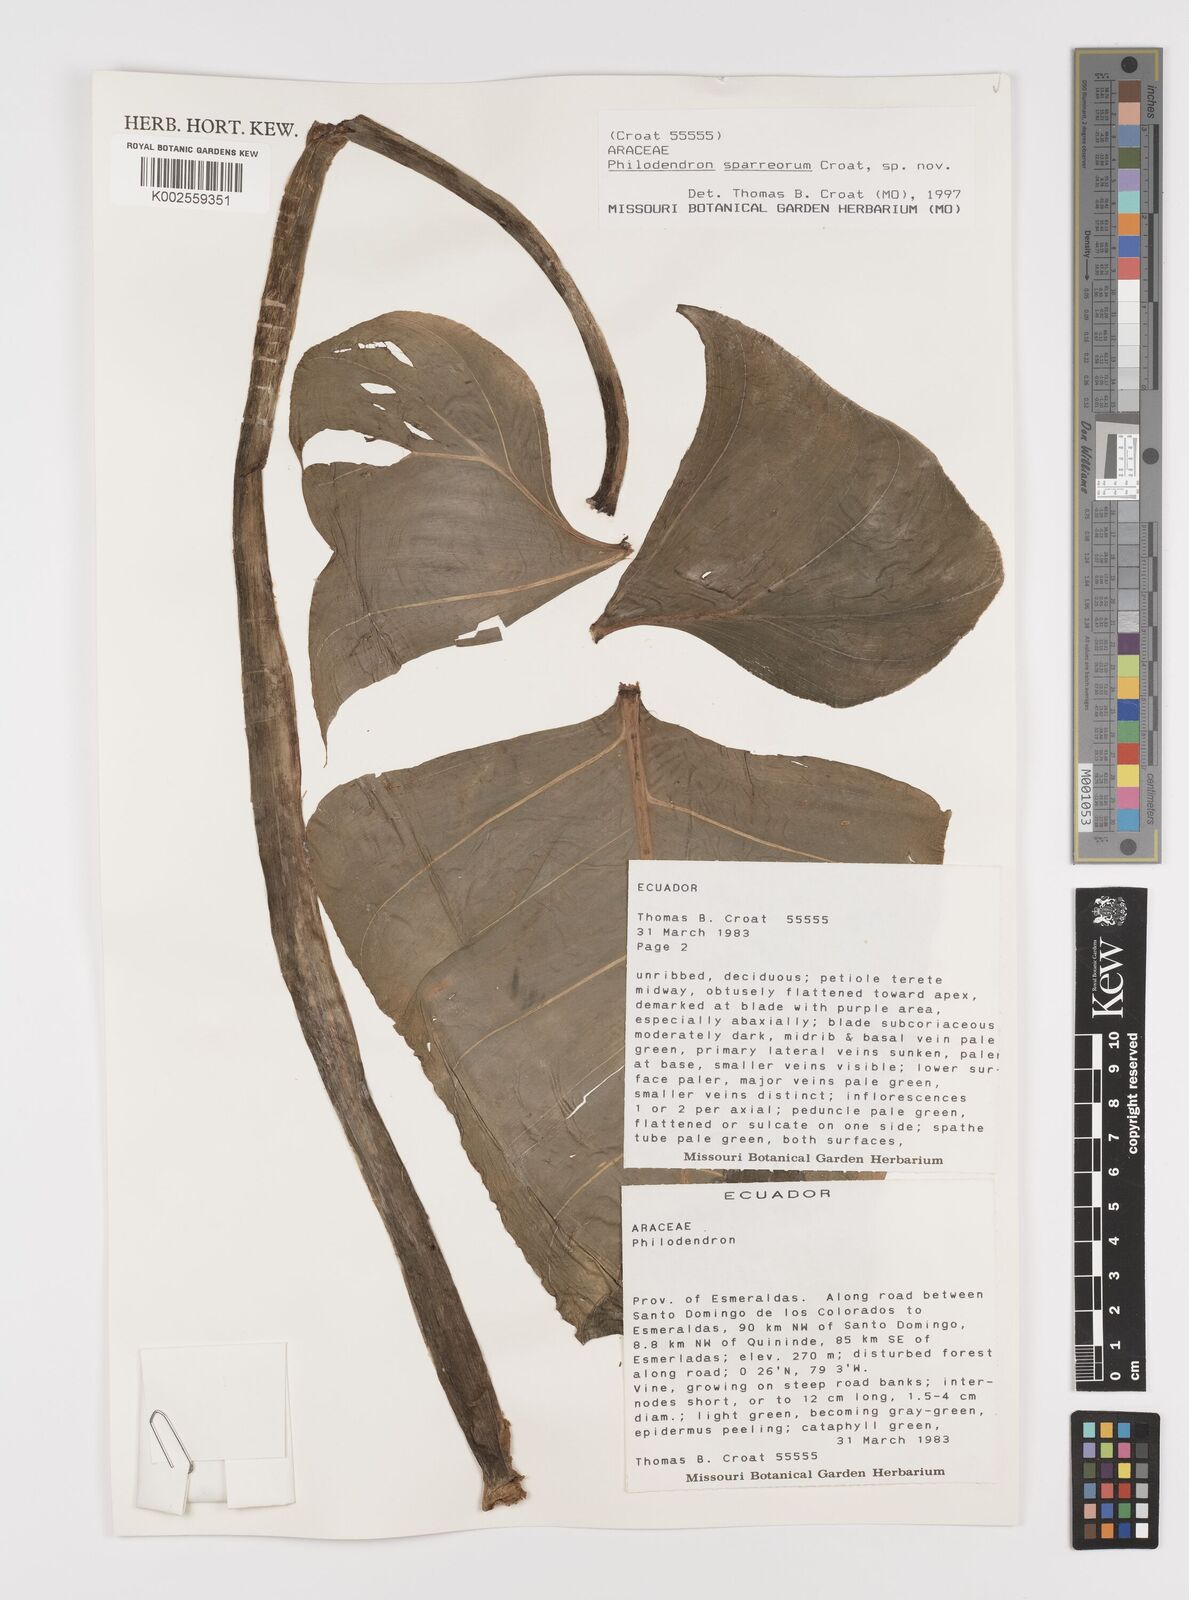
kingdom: Plantae
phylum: Tracheophyta
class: Liliopsida
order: Alismatales
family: Araceae
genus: Philodendron
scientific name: Philodendron sparreorum
